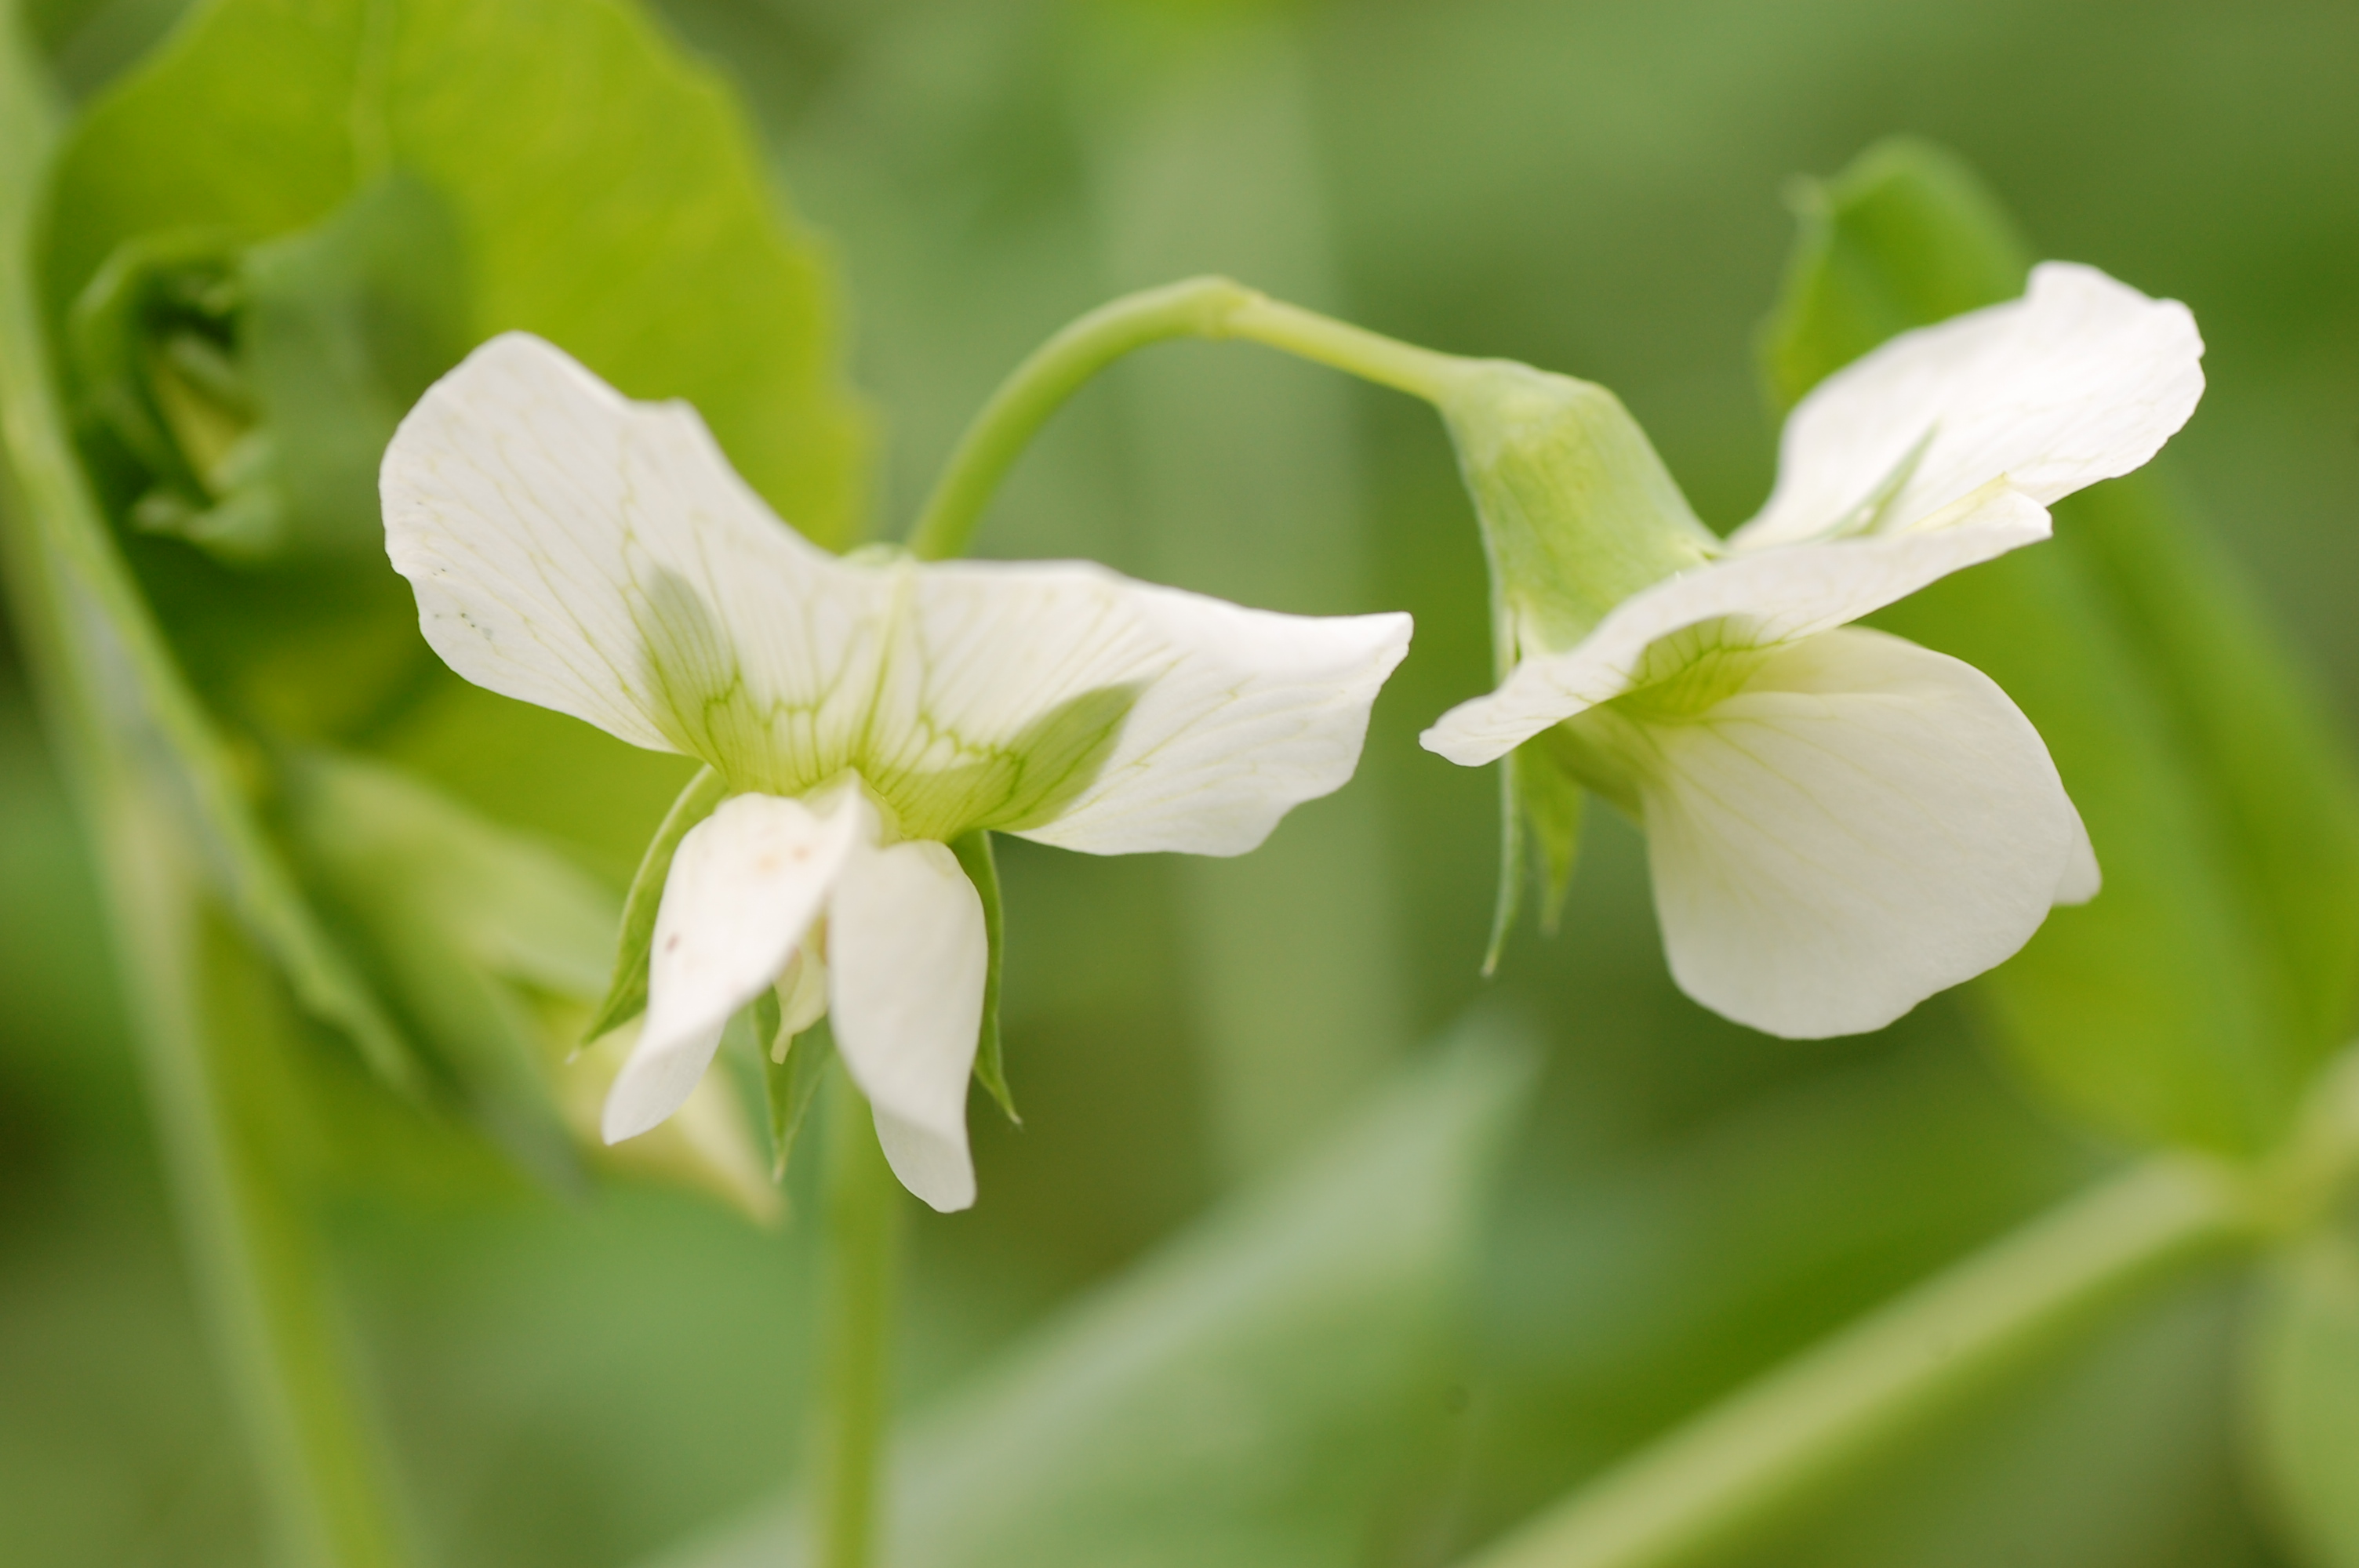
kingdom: Plantae
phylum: Tracheophyta
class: Magnoliopsida
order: Fabales
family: Fabaceae
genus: Lathyrus
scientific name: Lathyrus oleraceus
